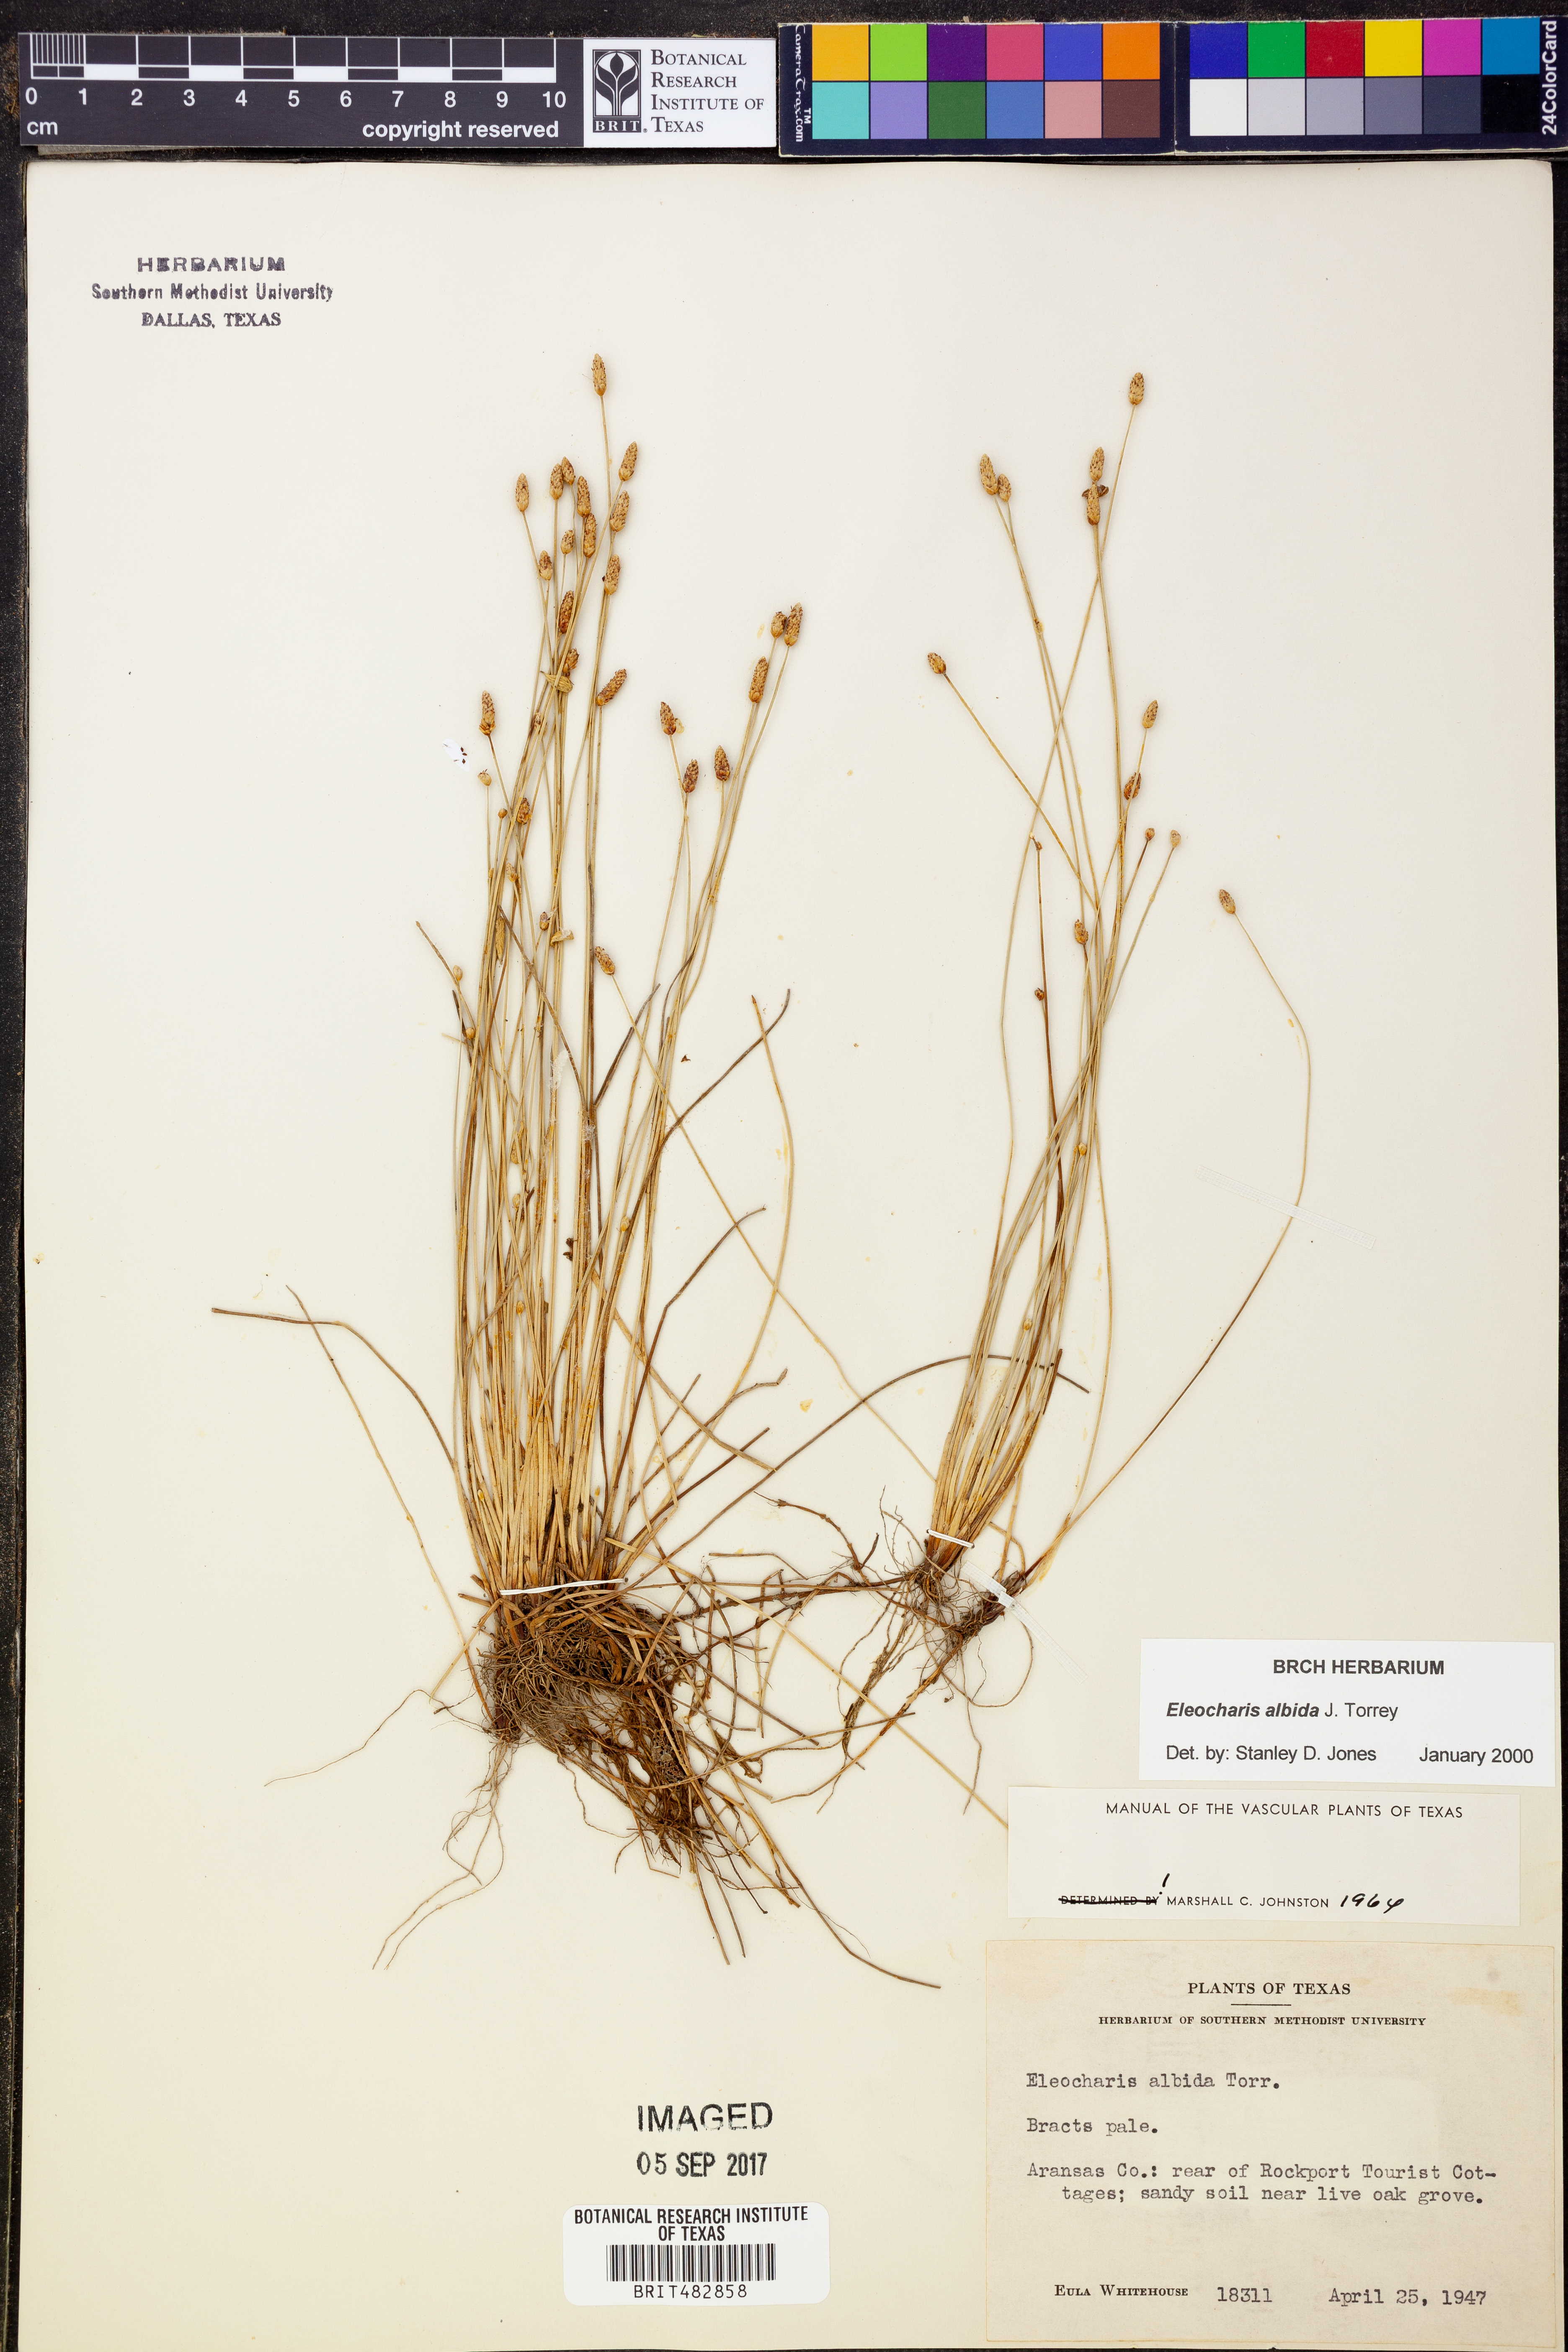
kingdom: Plantae
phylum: Tracheophyta
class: Liliopsida
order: Poales
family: Cyperaceae
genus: Eleocharis
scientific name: Eleocharis albida
